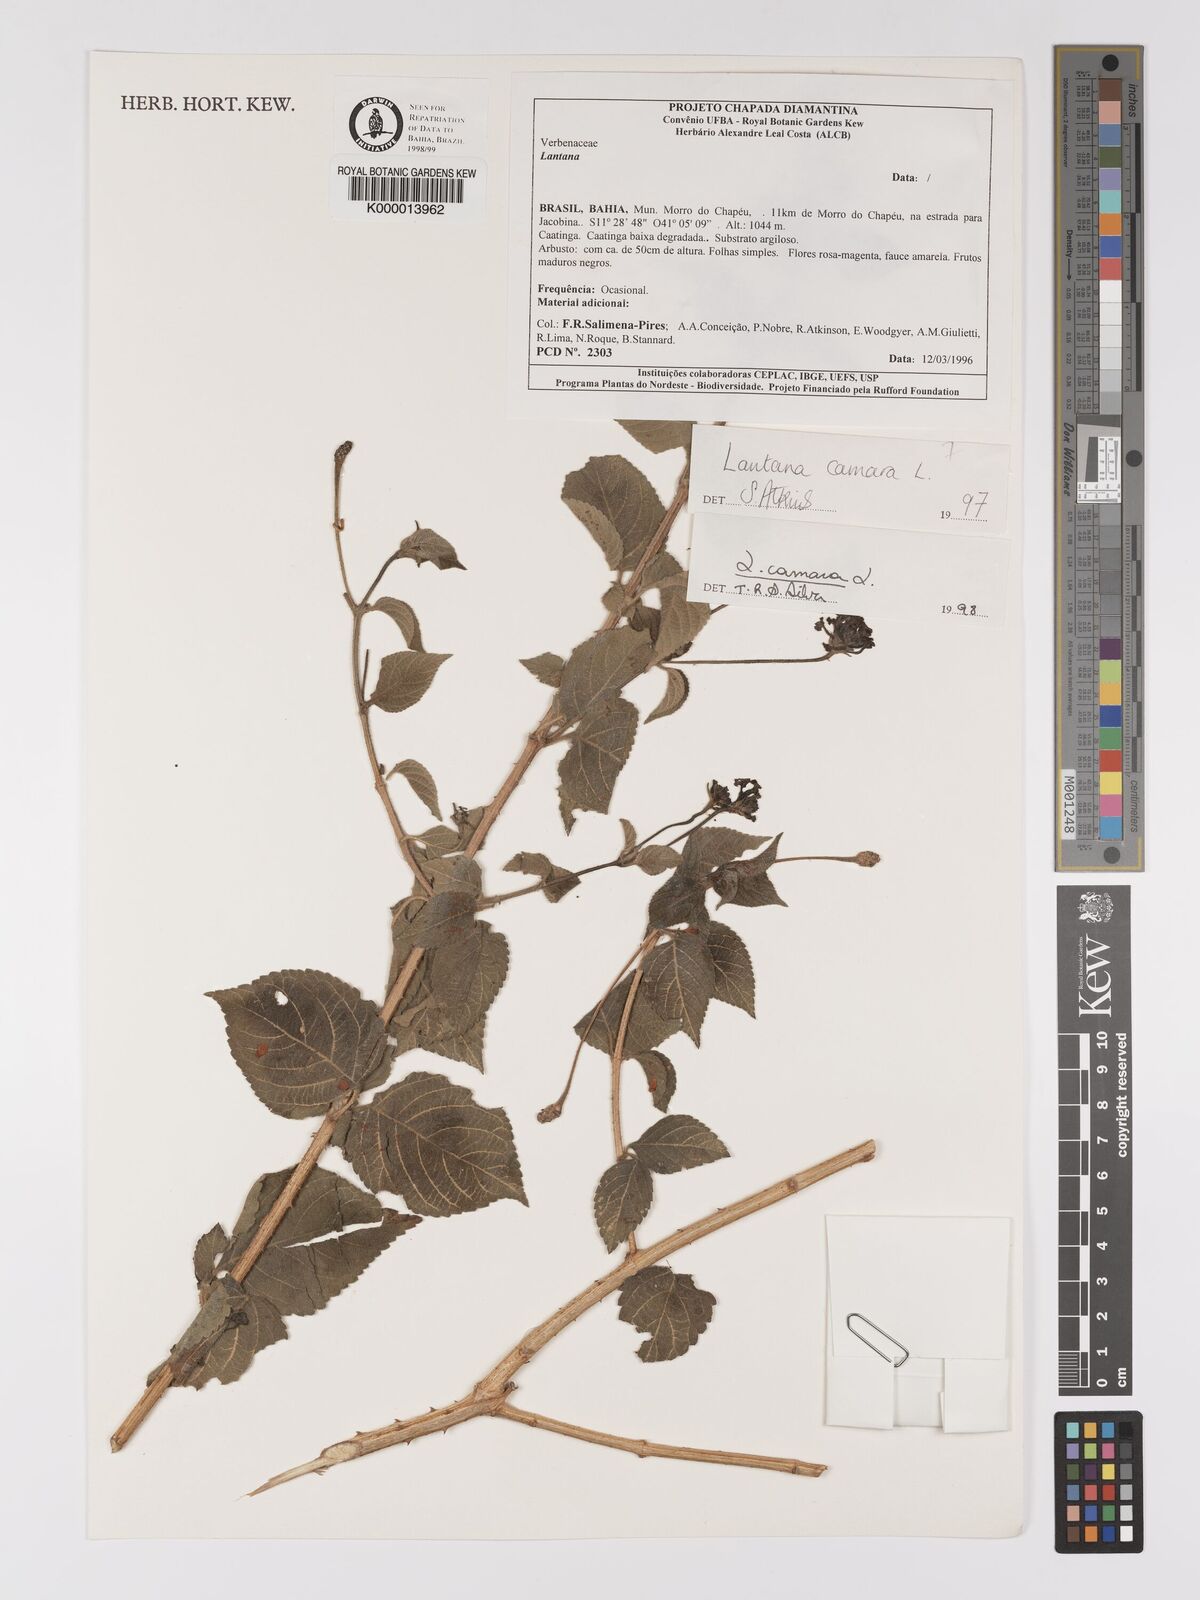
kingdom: Plantae
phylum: Tracheophyta
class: Magnoliopsida
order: Lamiales
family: Verbenaceae
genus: Lantana
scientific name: Lantana camara
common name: Lantana
